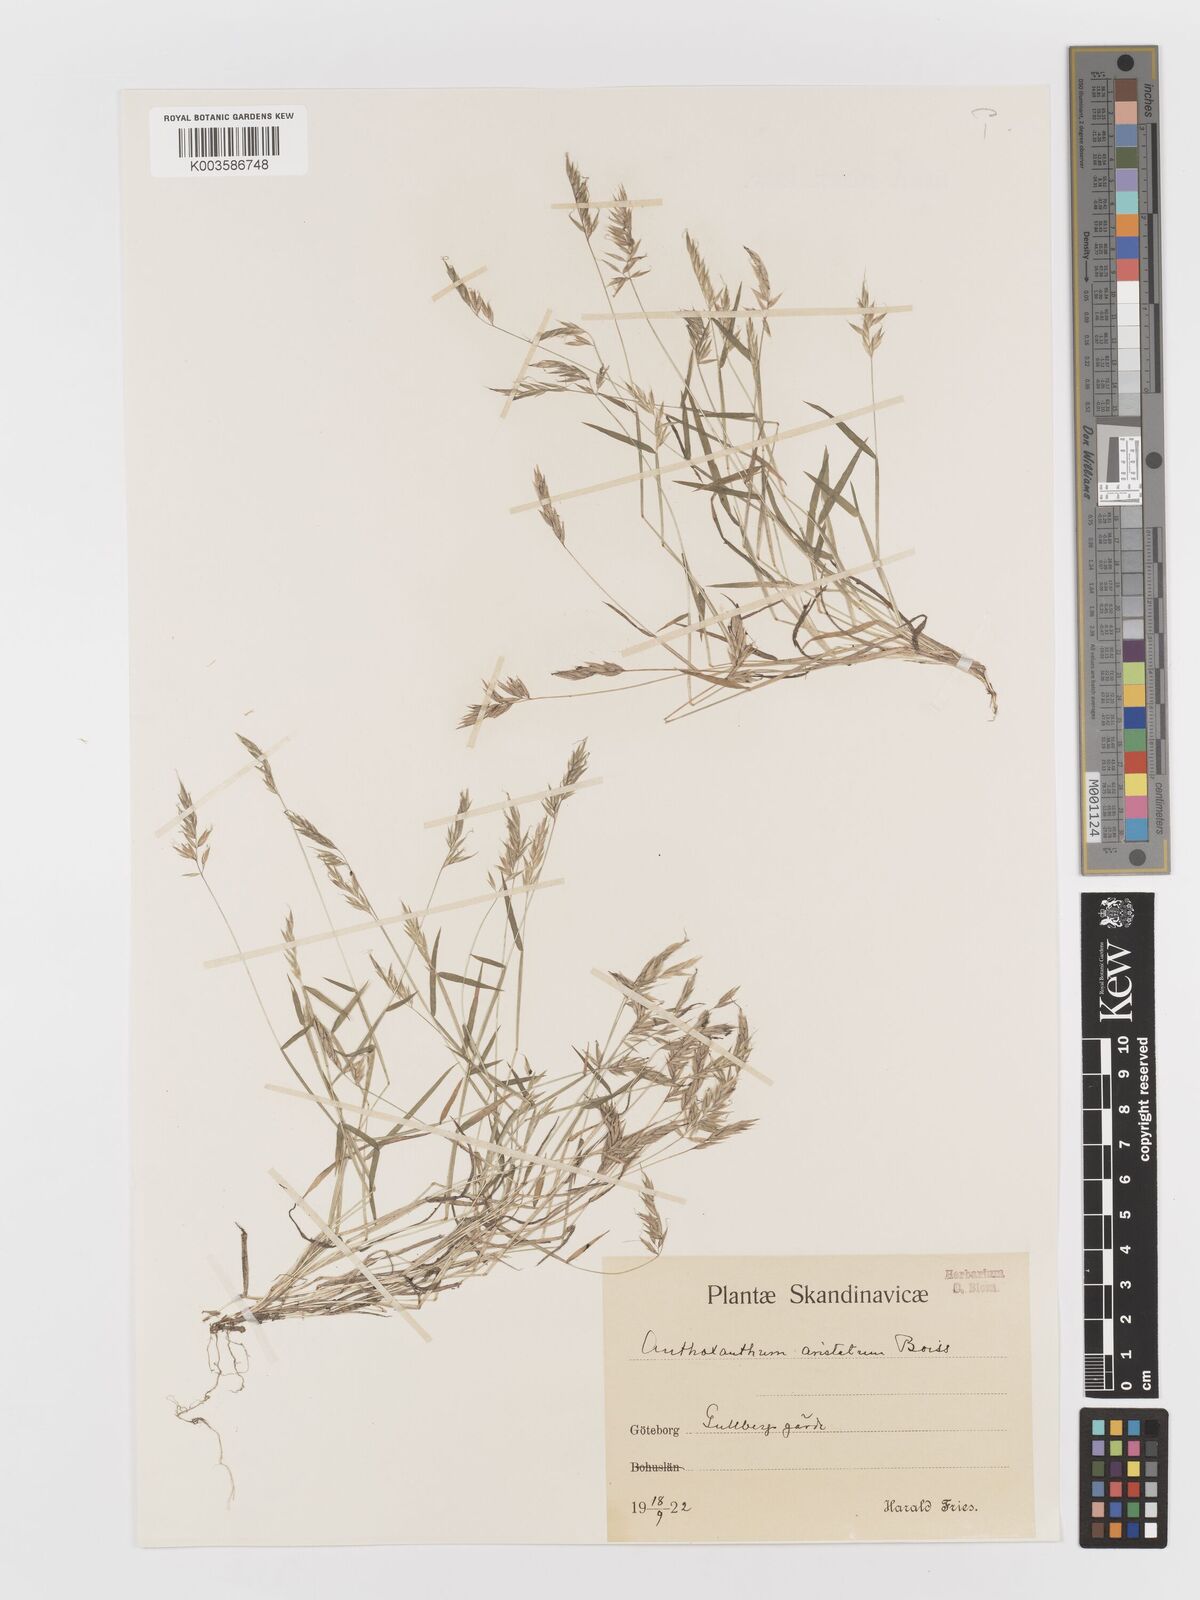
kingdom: Plantae
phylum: Tracheophyta
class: Liliopsida
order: Poales
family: Poaceae
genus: Anthoxanthum
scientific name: Anthoxanthum aristatum
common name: Annual vernal-grass
